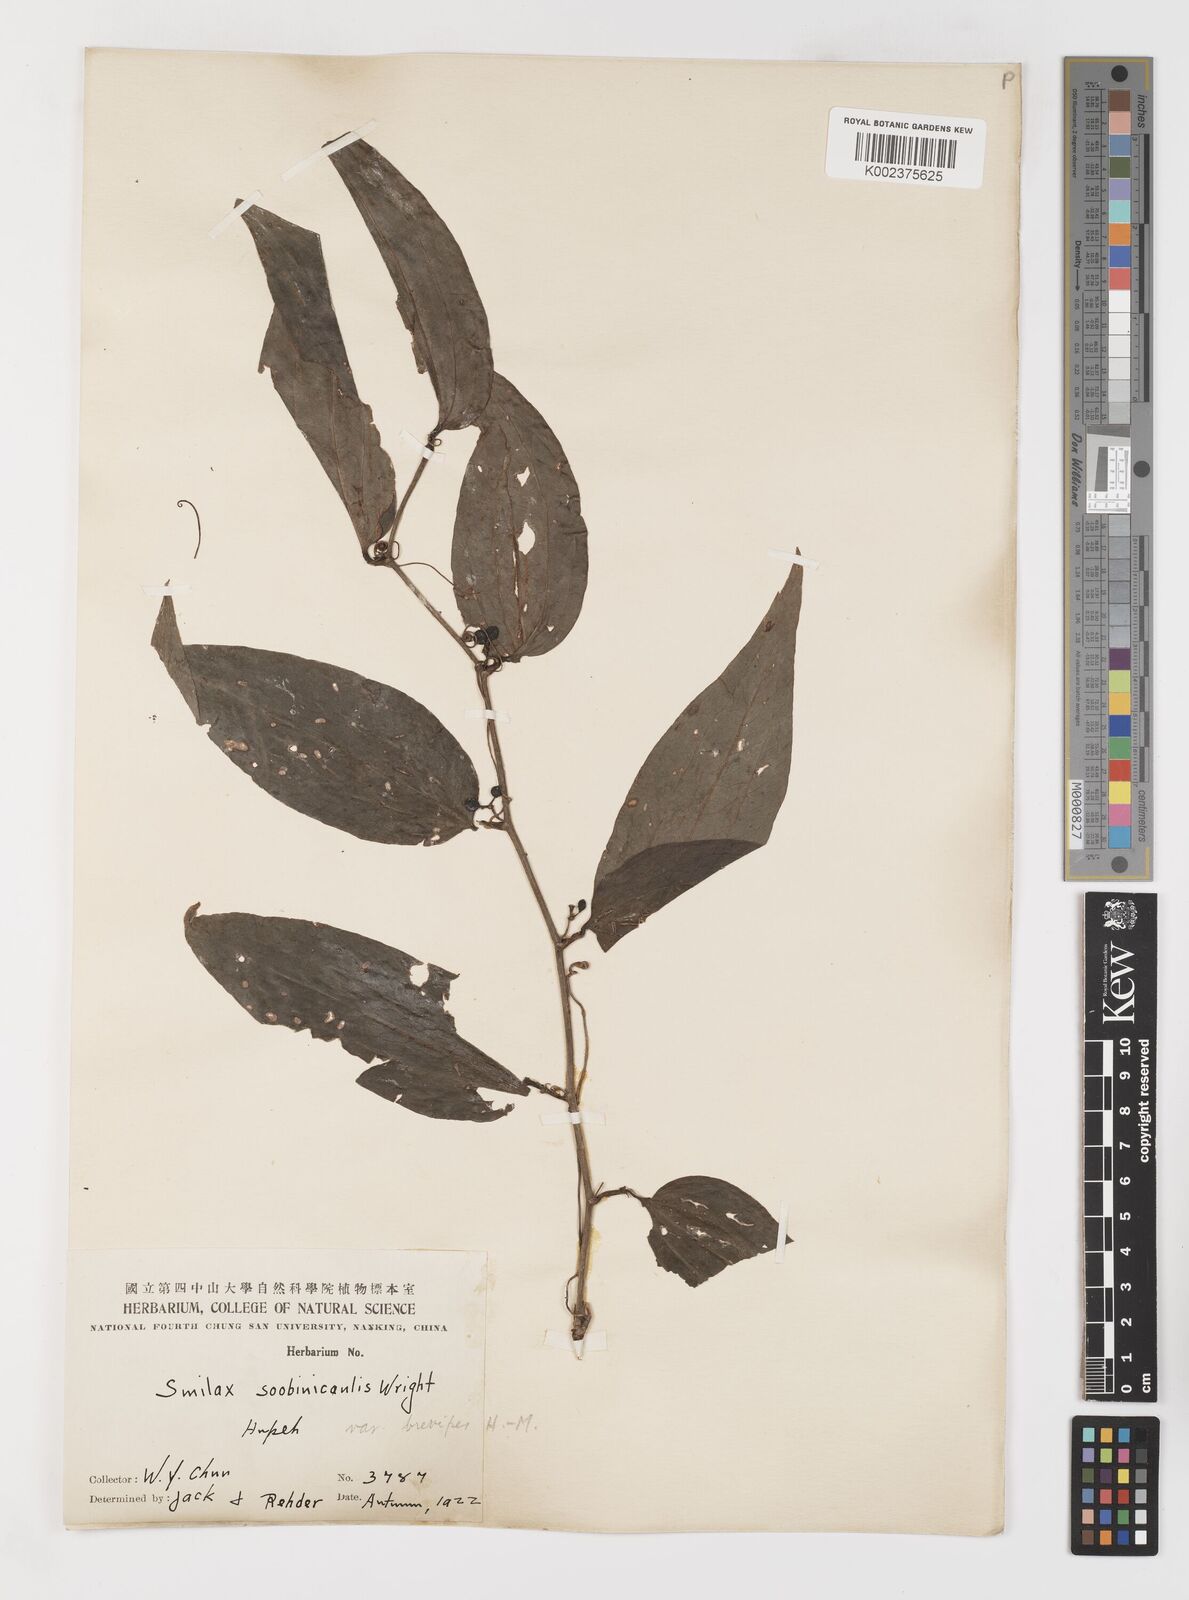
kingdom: Plantae
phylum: Tracheophyta
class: Liliopsida
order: Liliales
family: Smilacaceae
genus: Smilax
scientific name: Smilax scobinicaulis
